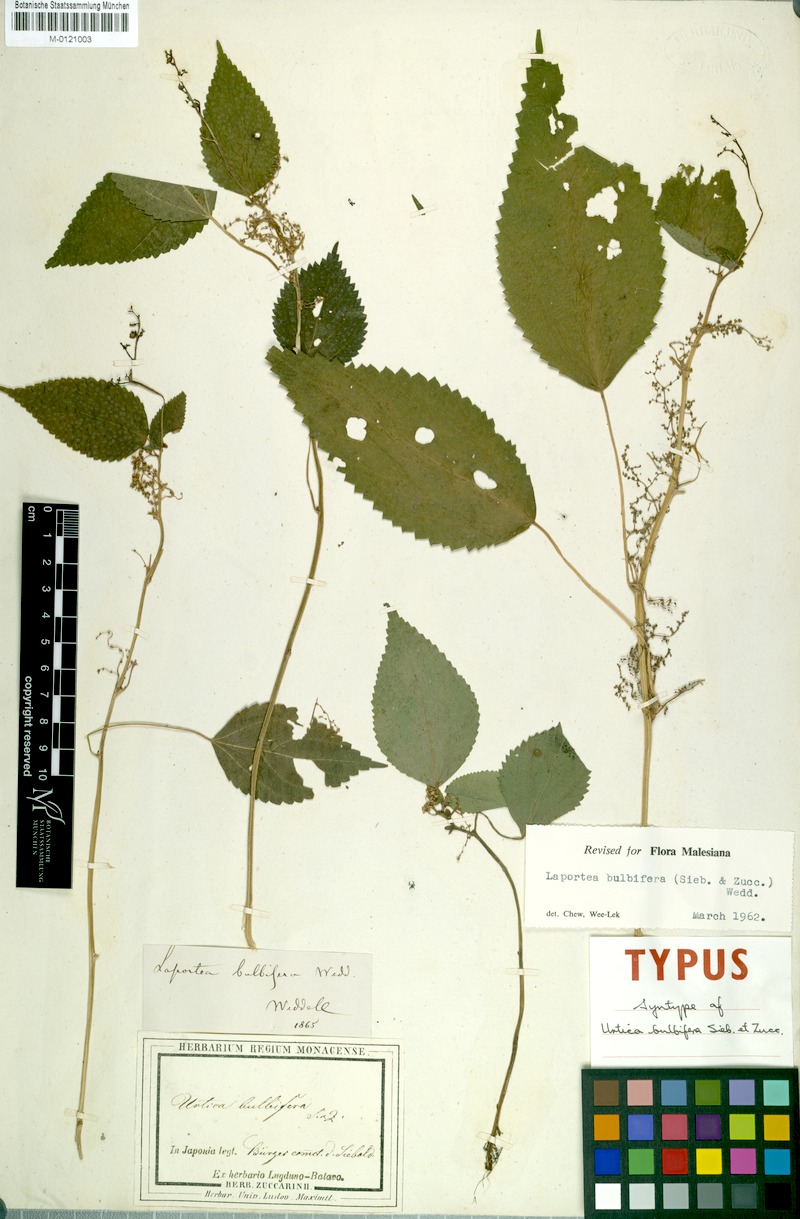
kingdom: Plantae
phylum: Tracheophyta
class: Magnoliopsida
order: Rosales
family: Urticaceae
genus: Debregeasia
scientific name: Debregeasia edulis
